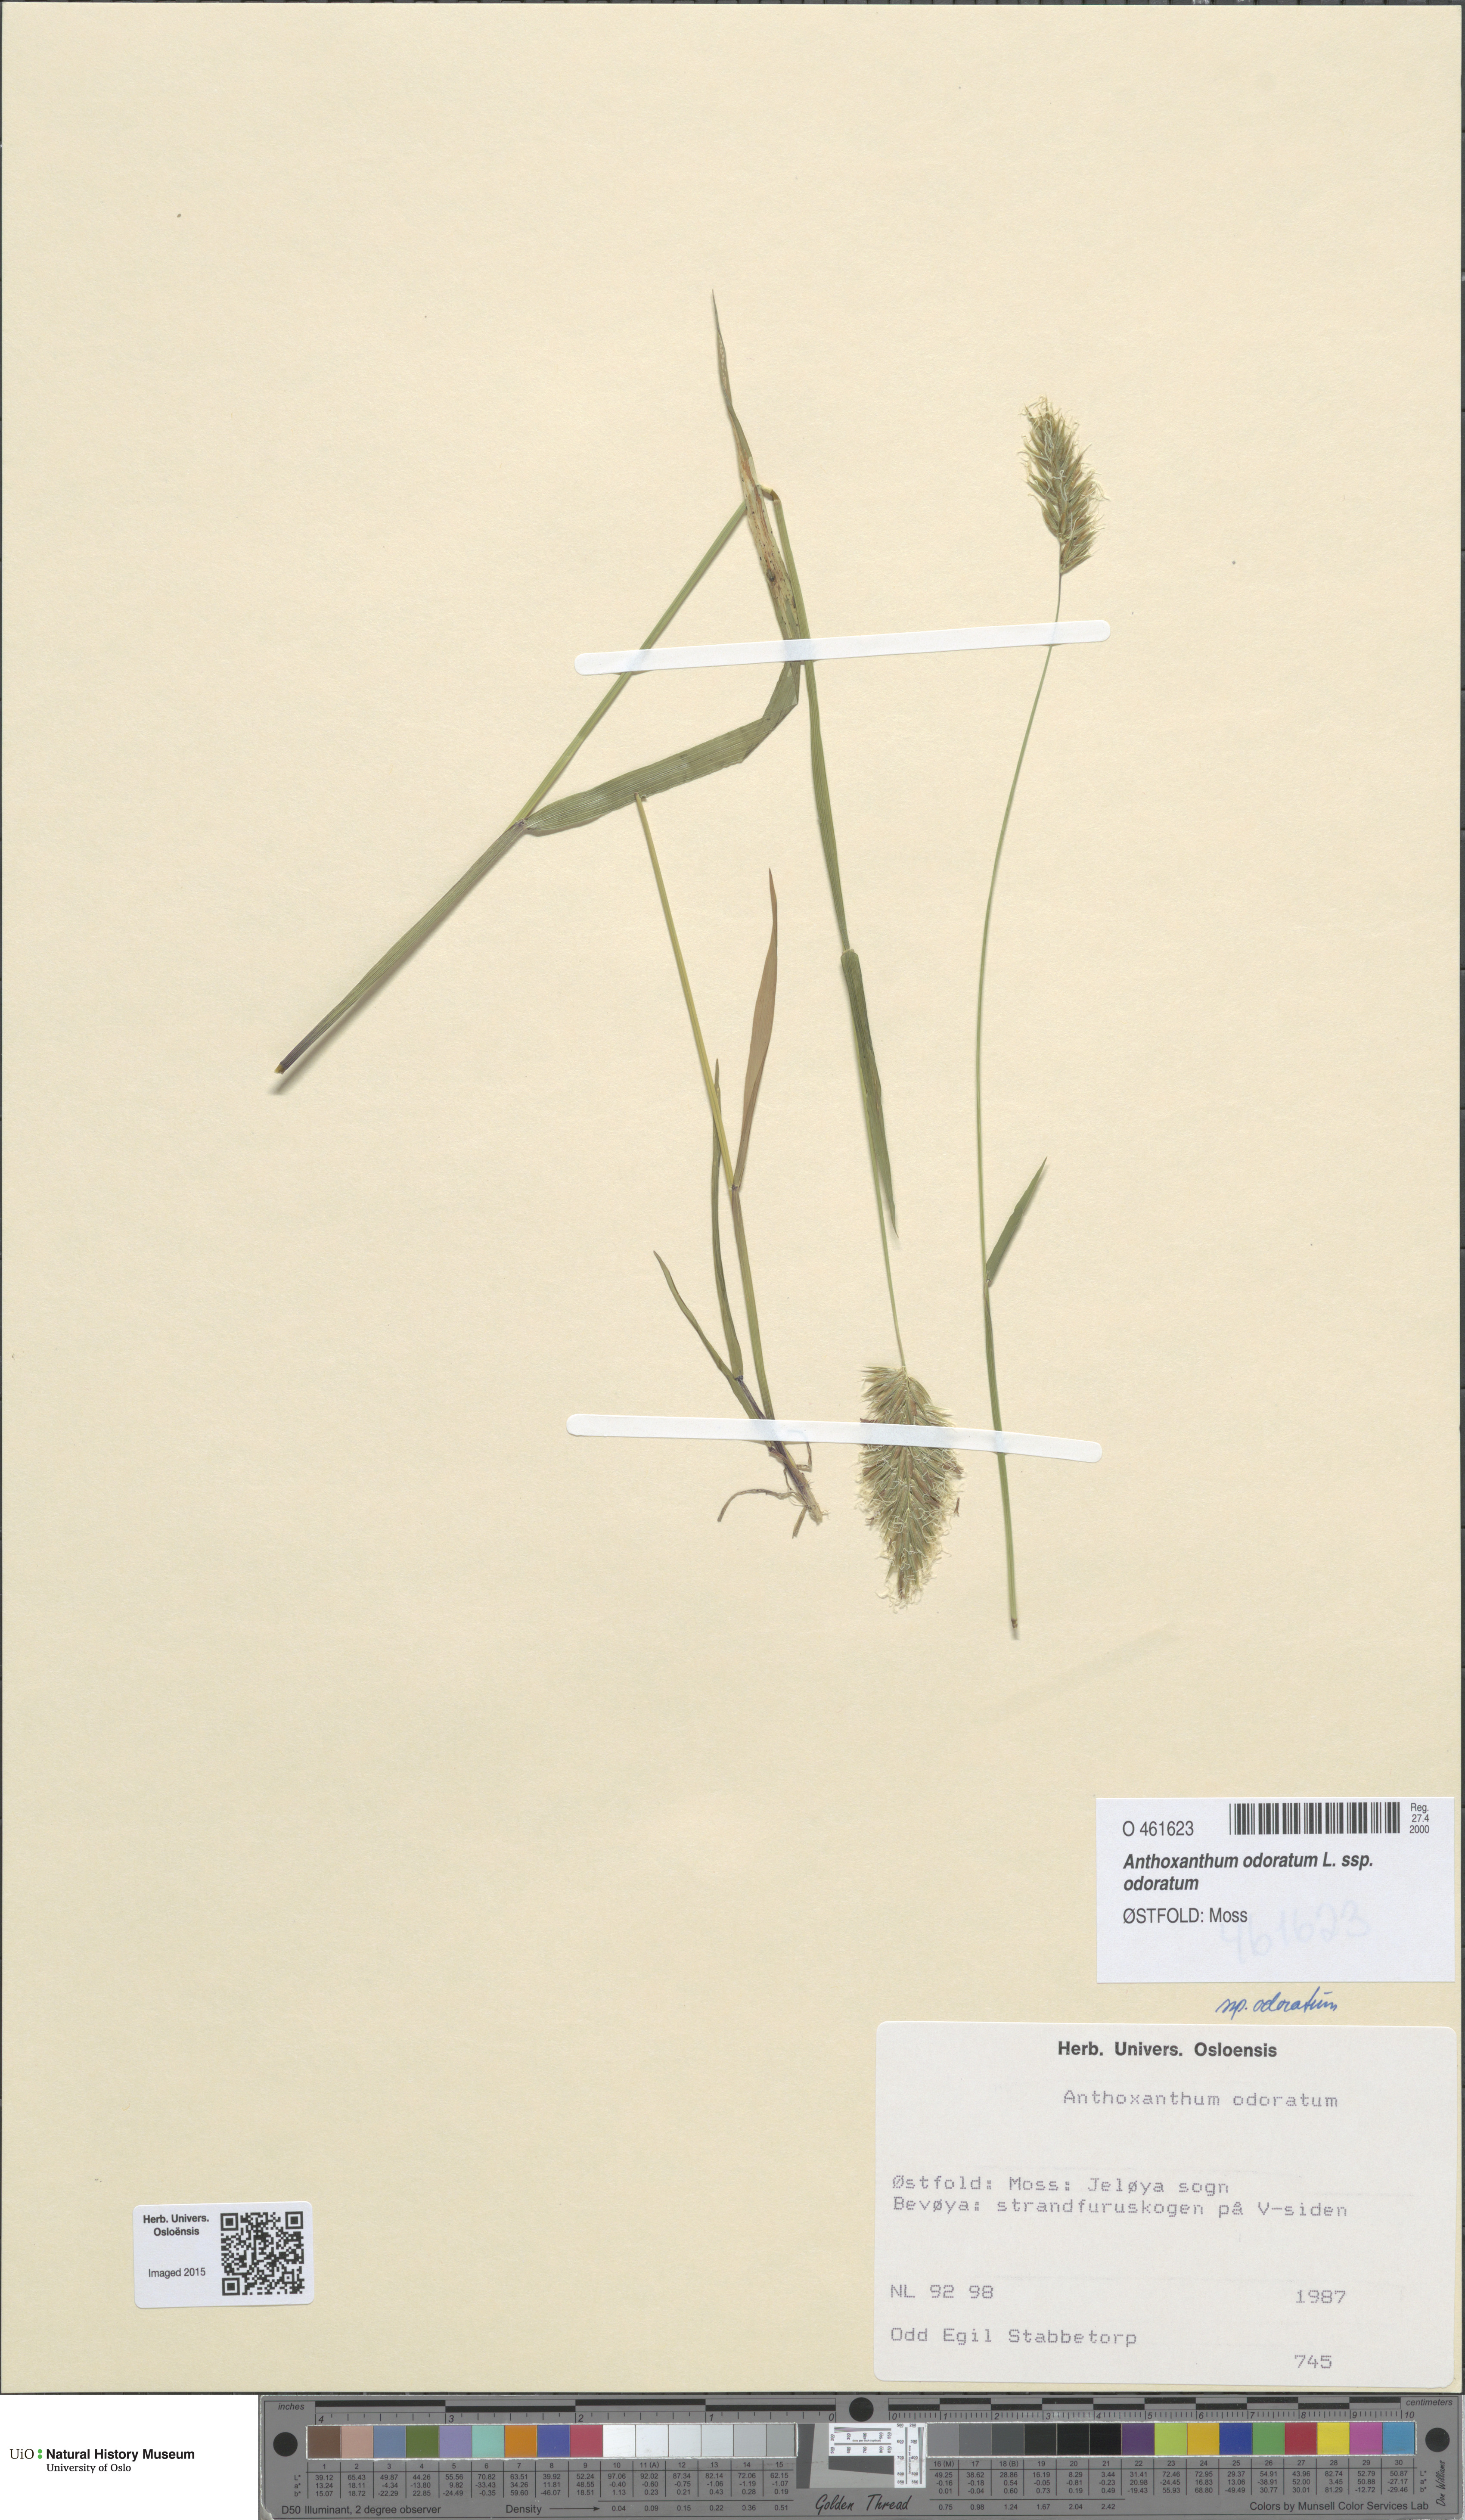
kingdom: Plantae
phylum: Tracheophyta
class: Liliopsida
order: Poales
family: Poaceae
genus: Anthoxanthum
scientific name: Anthoxanthum odoratum
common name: Sweet vernalgrass
